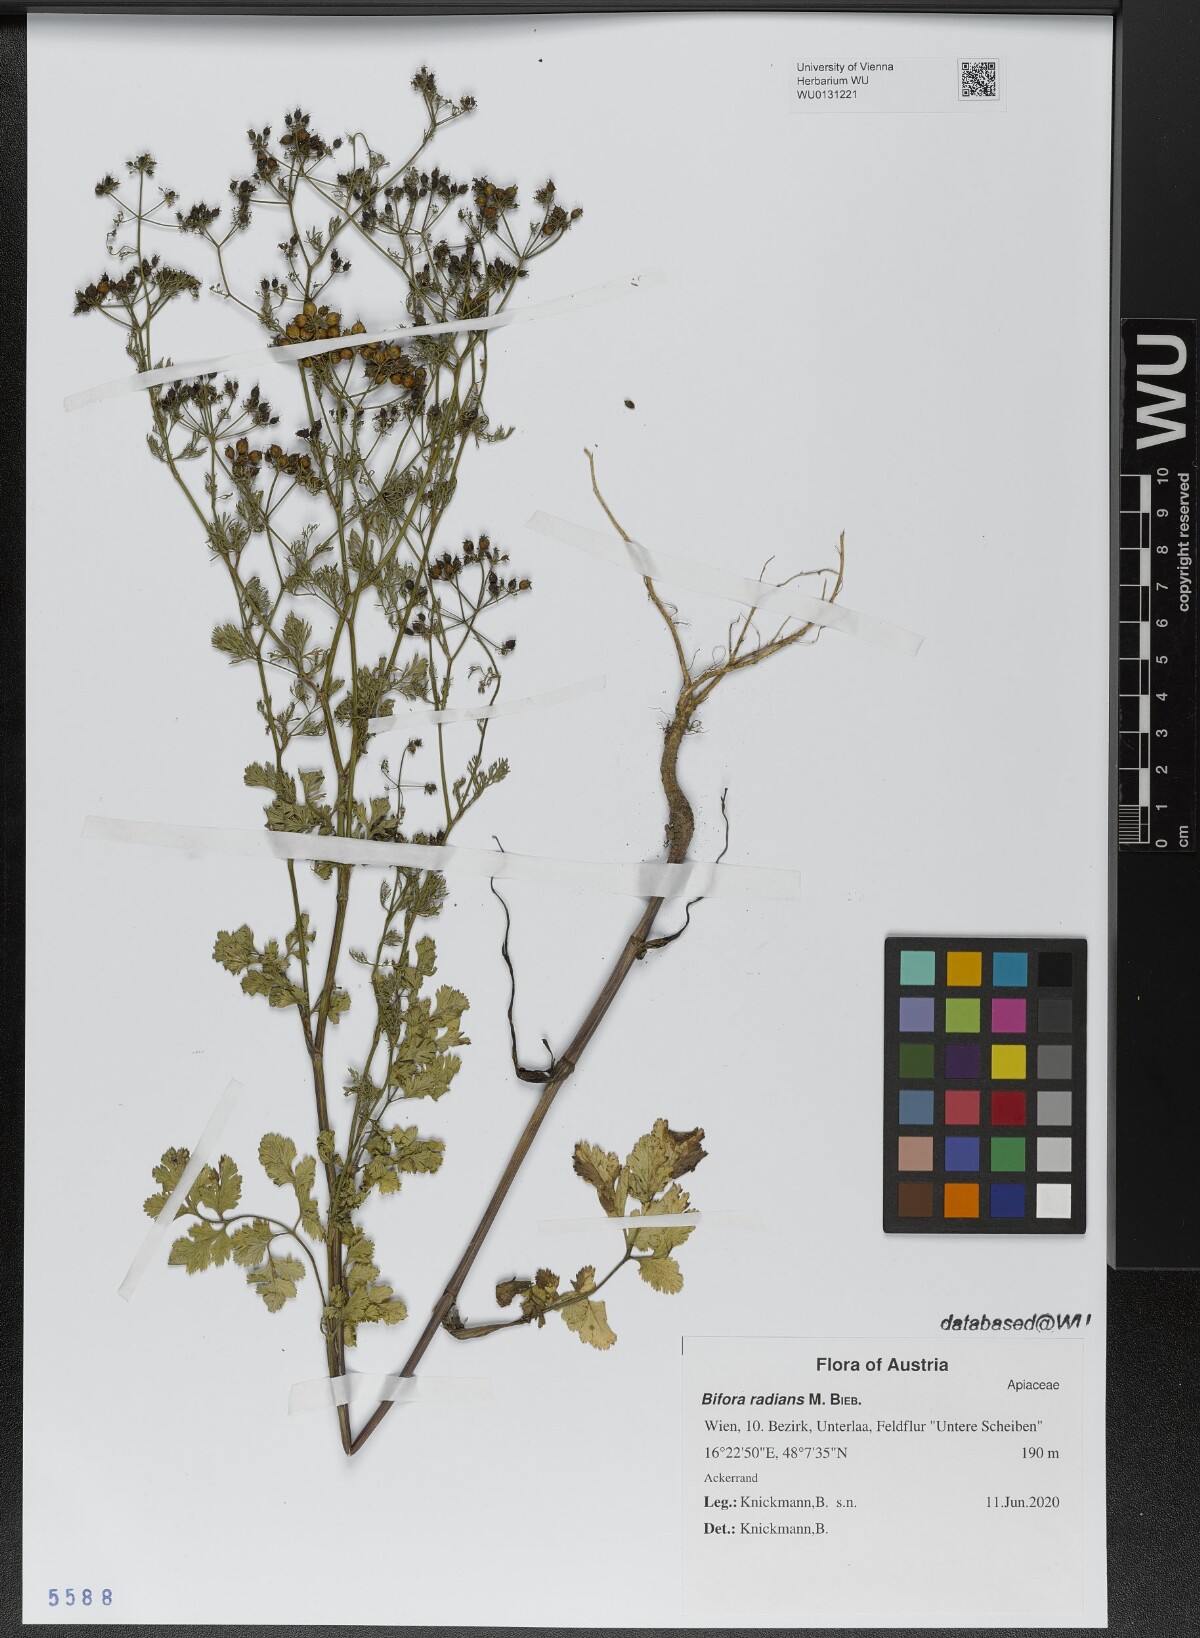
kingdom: Plantae
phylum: Tracheophyta
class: Magnoliopsida
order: Apiales
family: Apiaceae
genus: Coriandrum
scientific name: Coriandrum sativum
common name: Coriander
